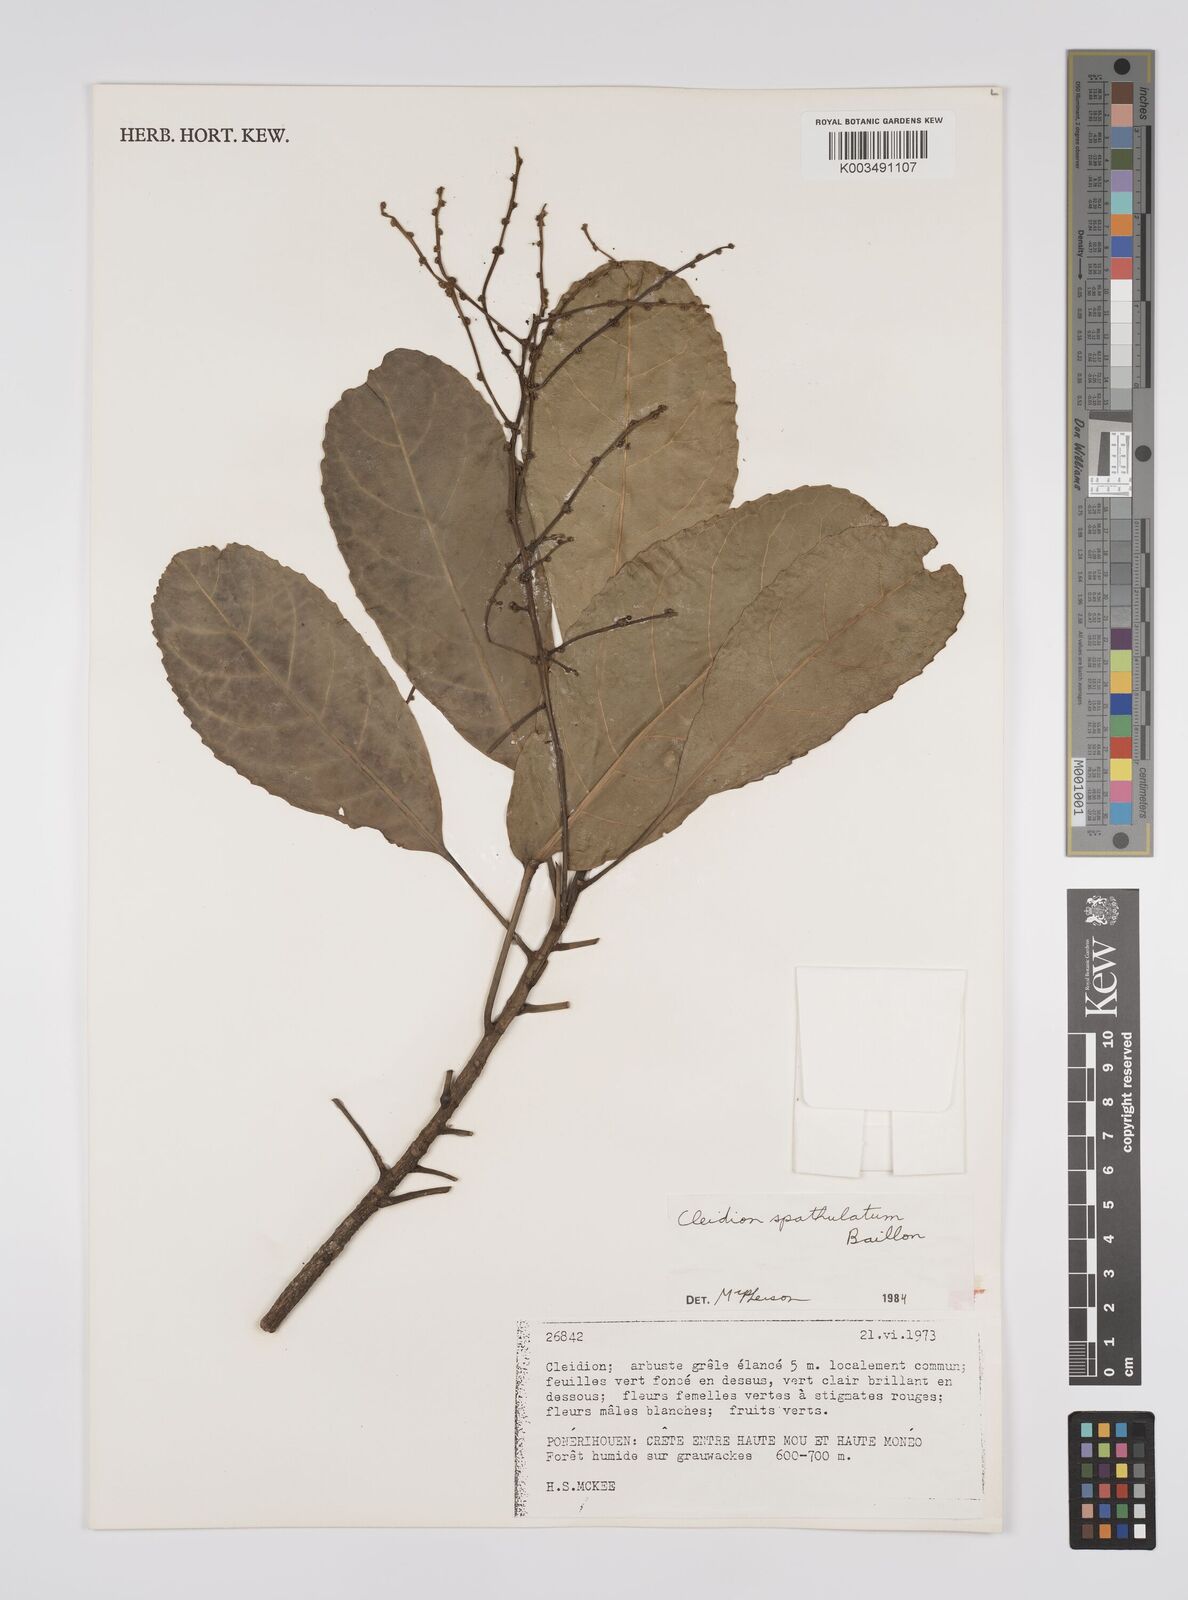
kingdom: Plantae
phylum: Tracheophyta
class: Magnoliopsida
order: Malpighiales
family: Euphorbiaceae
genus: Cleidion
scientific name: Cleidion spathulatum
